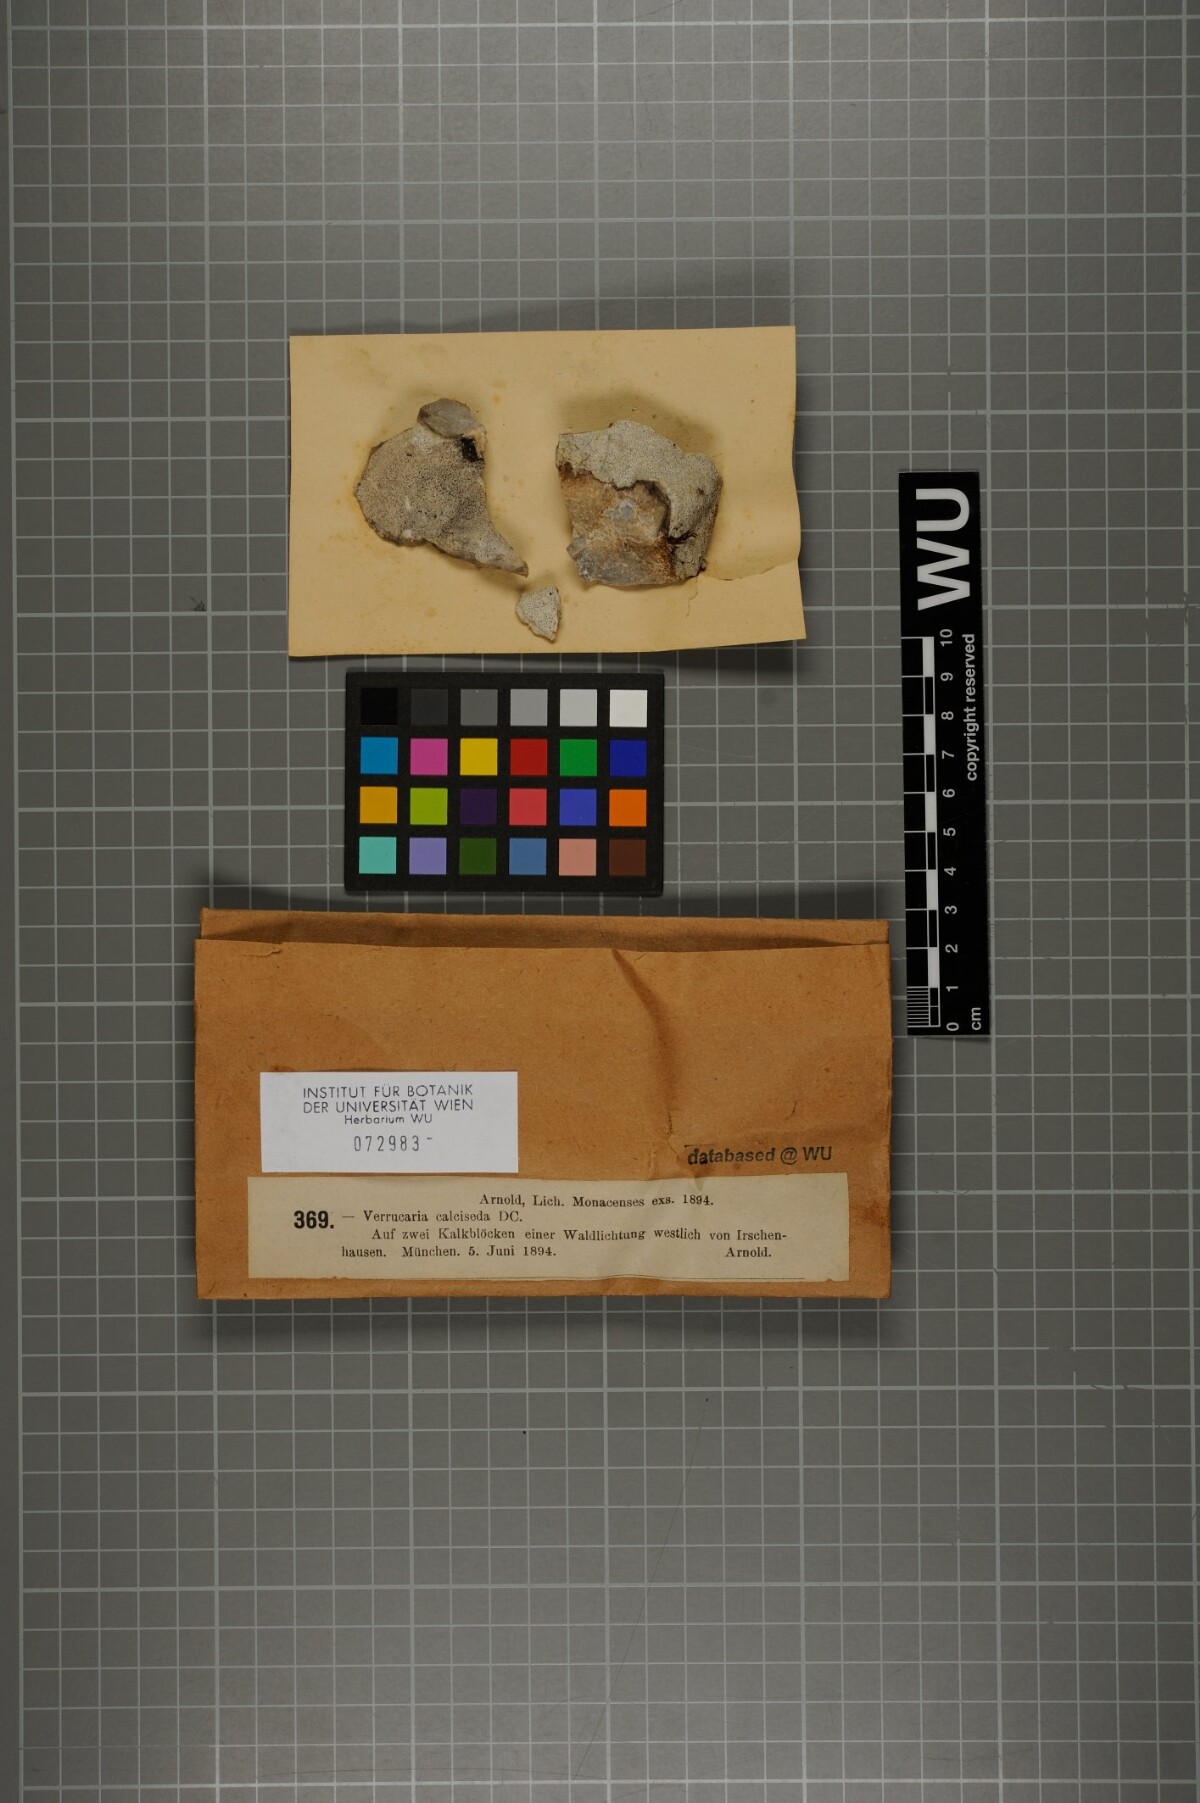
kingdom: Fungi
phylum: Ascomycota
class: Eurotiomycetes
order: Verrucariales
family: Verrucariaceae
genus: Bagliettoa
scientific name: Bagliettoa parmigera
